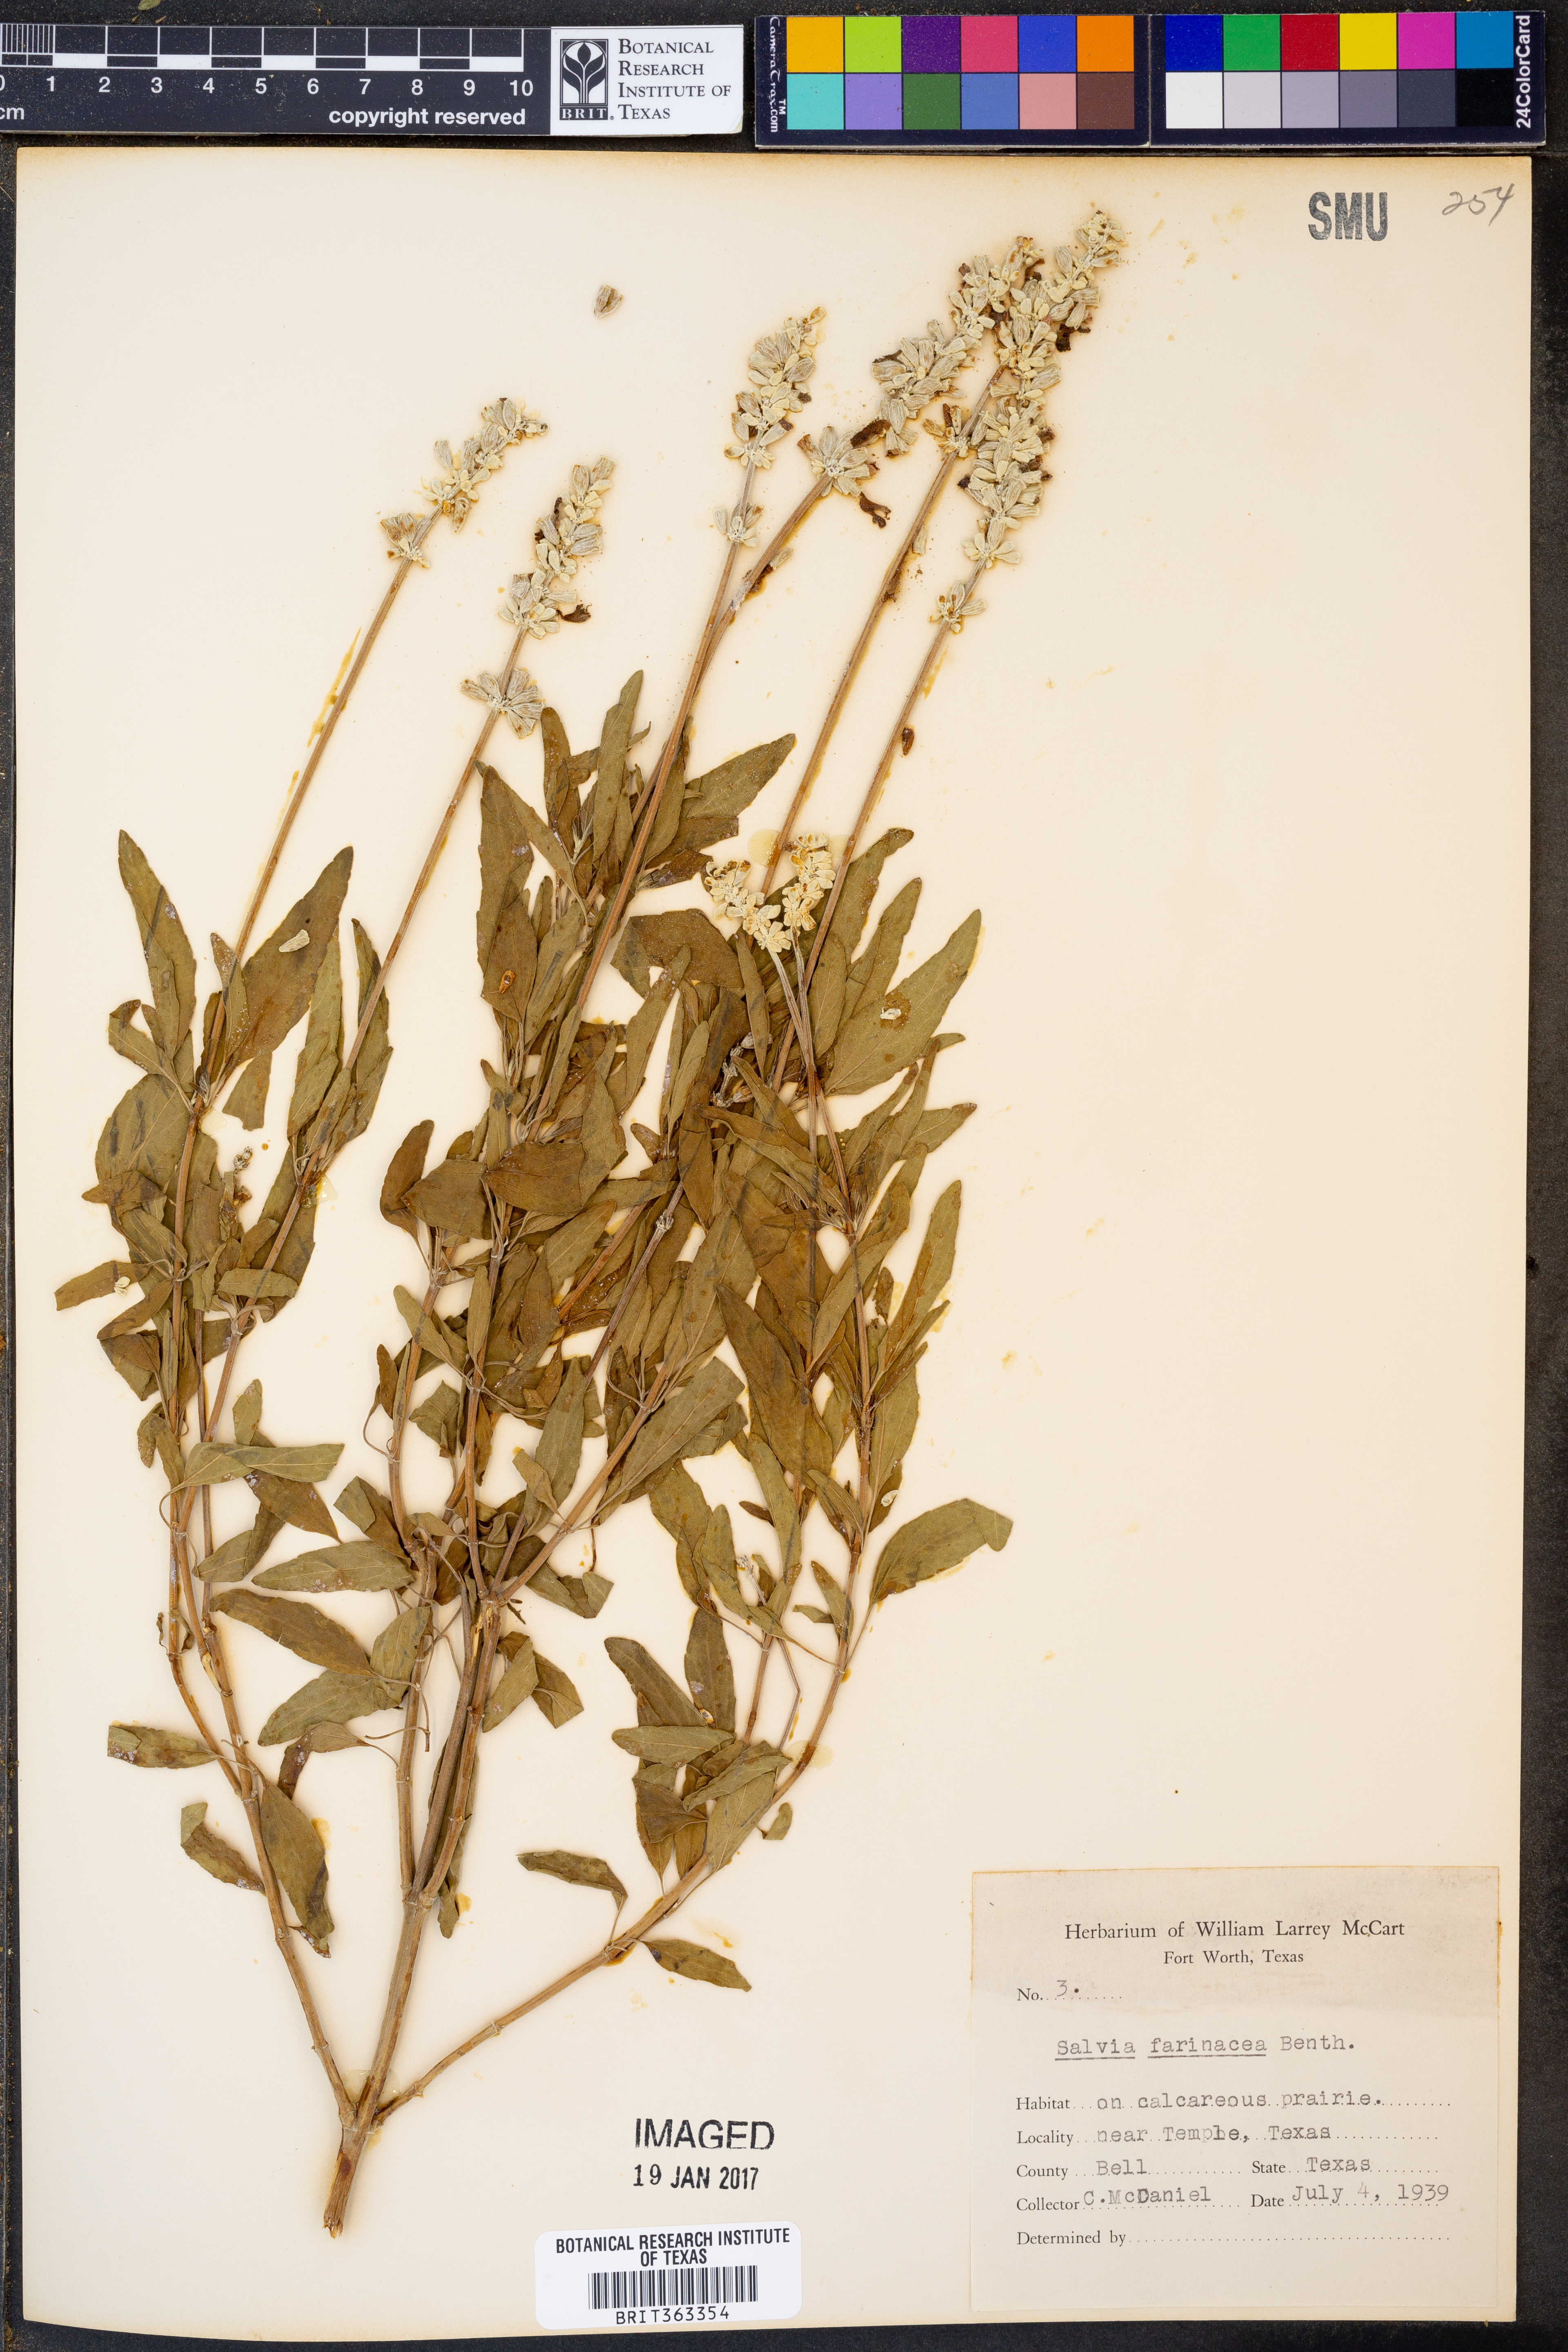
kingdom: Plantae
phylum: Tracheophyta
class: Magnoliopsida
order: Lamiales
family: Lamiaceae
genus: Salvia
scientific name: Salvia farinacea
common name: Mealy sage
